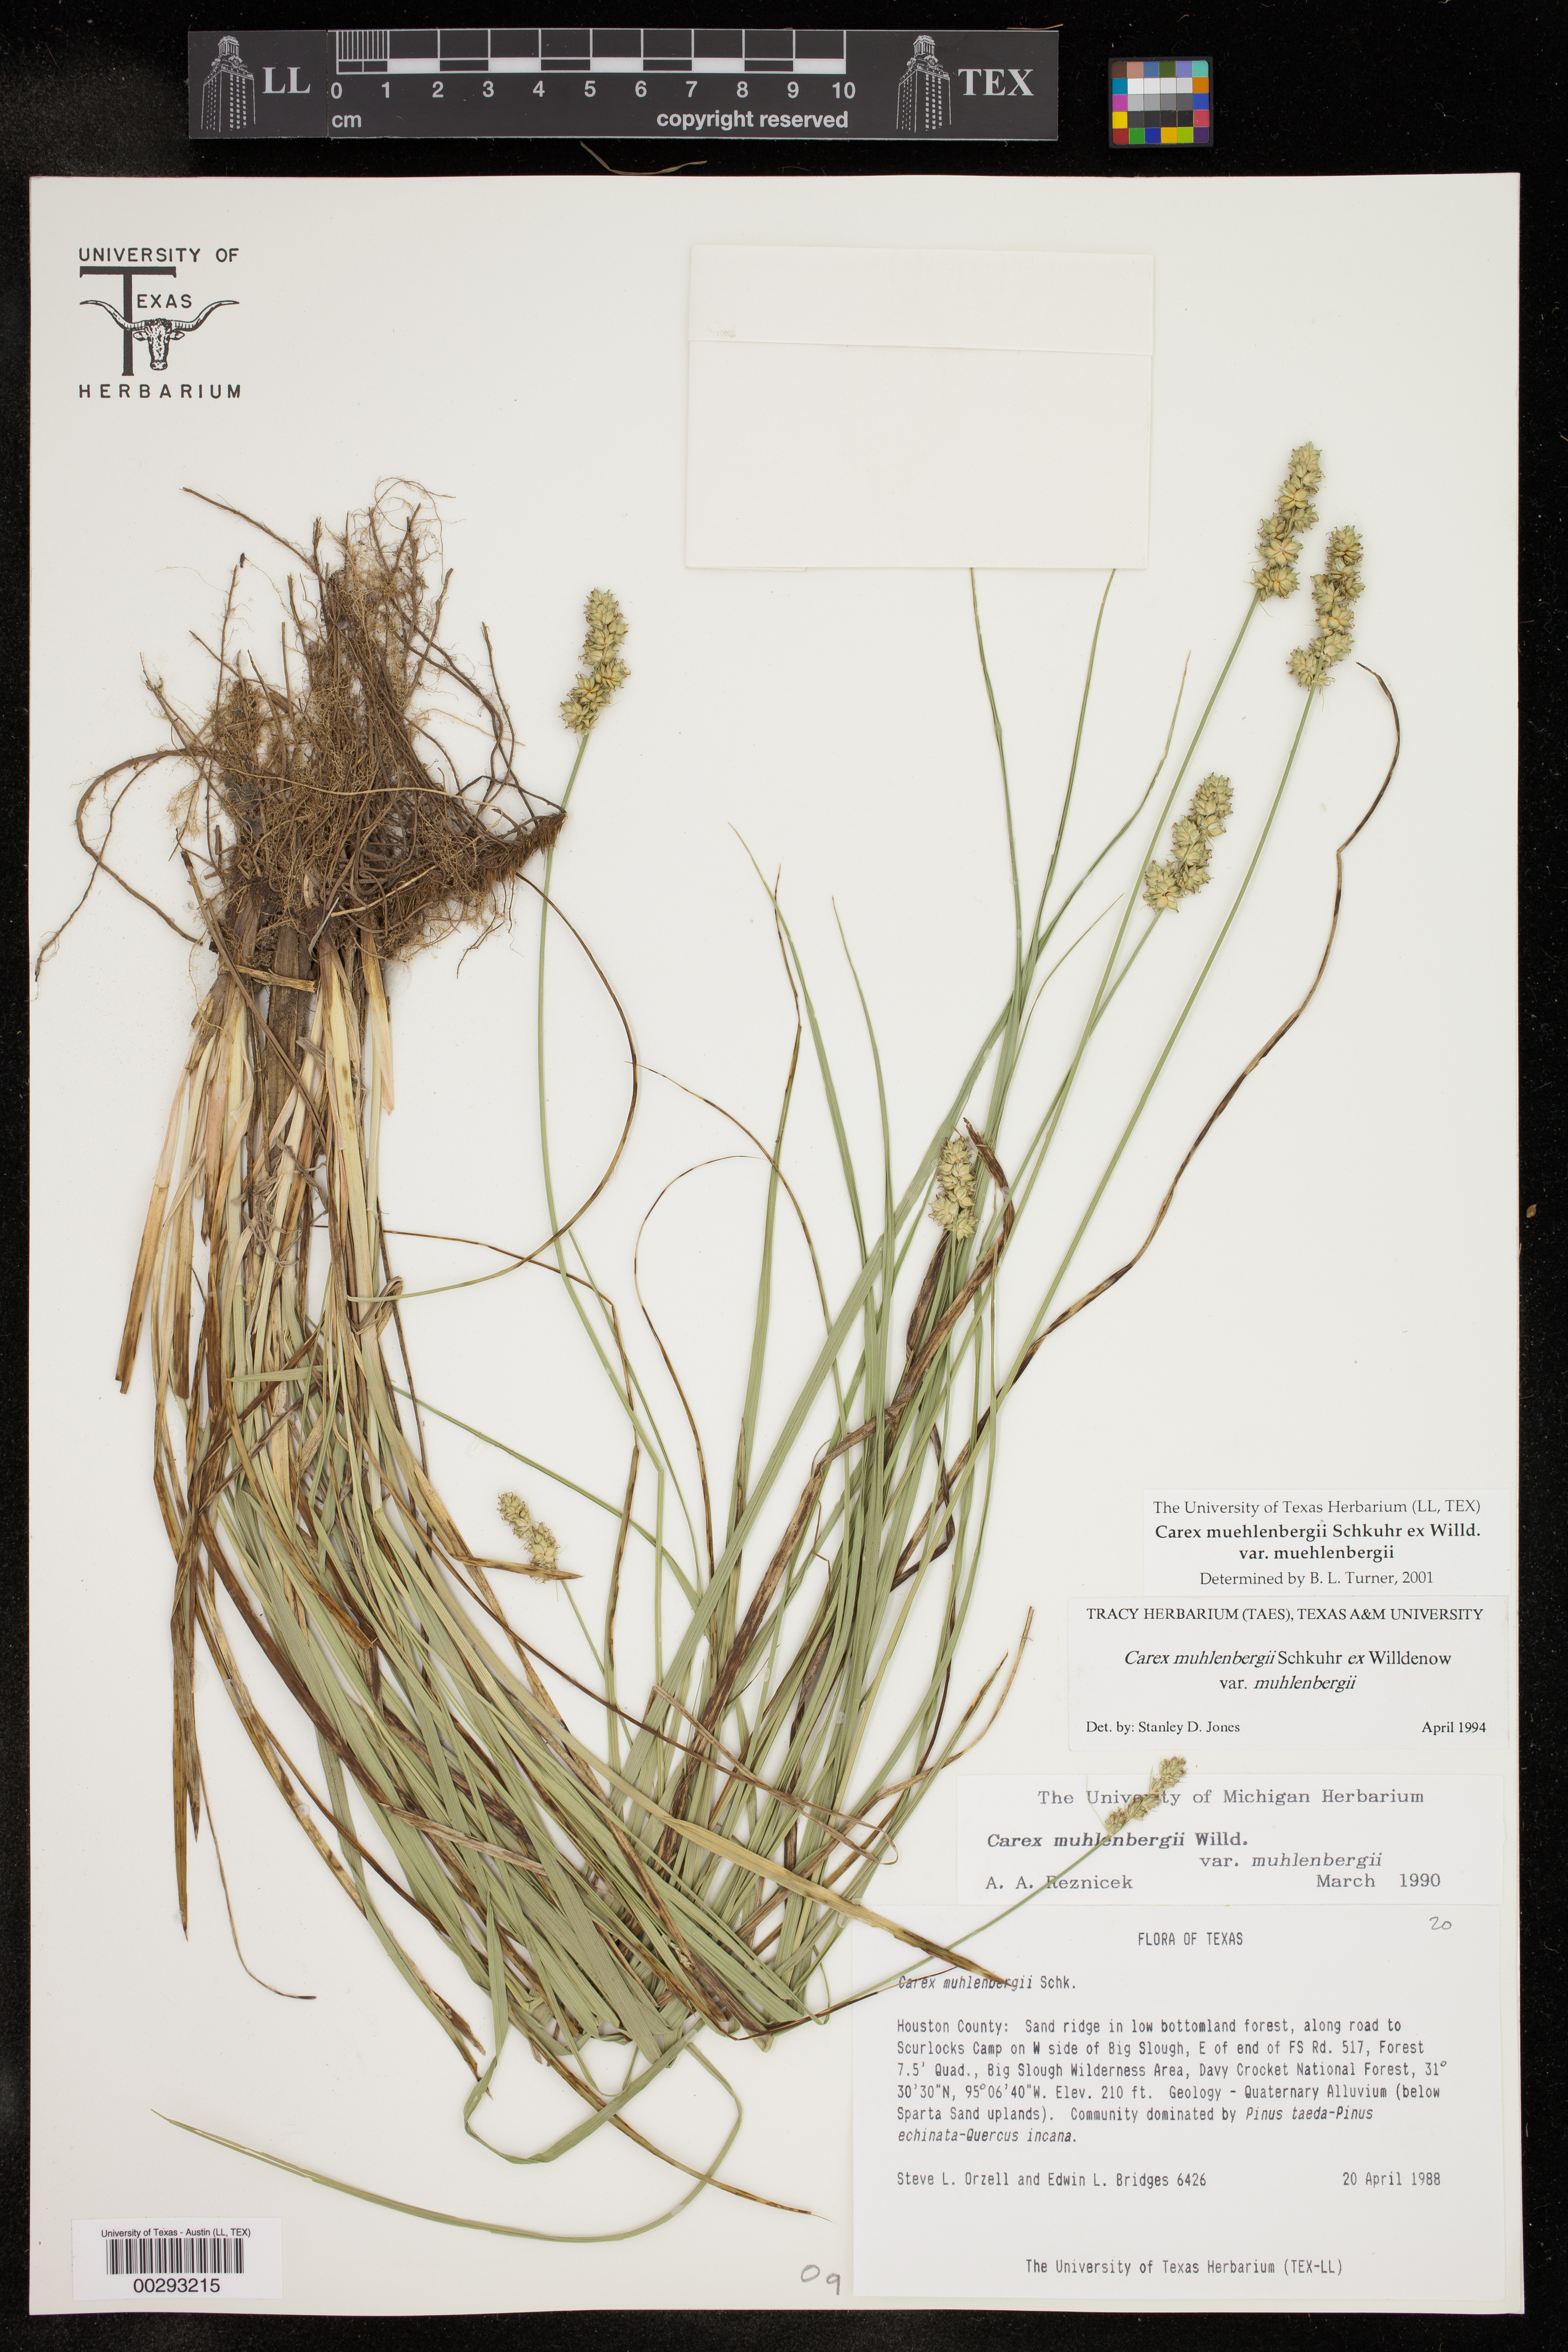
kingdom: Plantae
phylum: Tracheophyta
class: Liliopsida
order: Poales
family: Cyperaceae
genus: Carex
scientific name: Carex muehlenbergii
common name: Muhlenberg's bracted sedge
